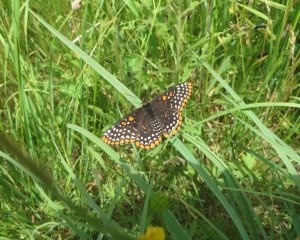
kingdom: Animalia
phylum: Arthropoda
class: Insecta
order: Lepidoptera
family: Nymphalidae
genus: Euphydryas
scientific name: Euphydryas phaeton
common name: Baltimore Checkerspot
